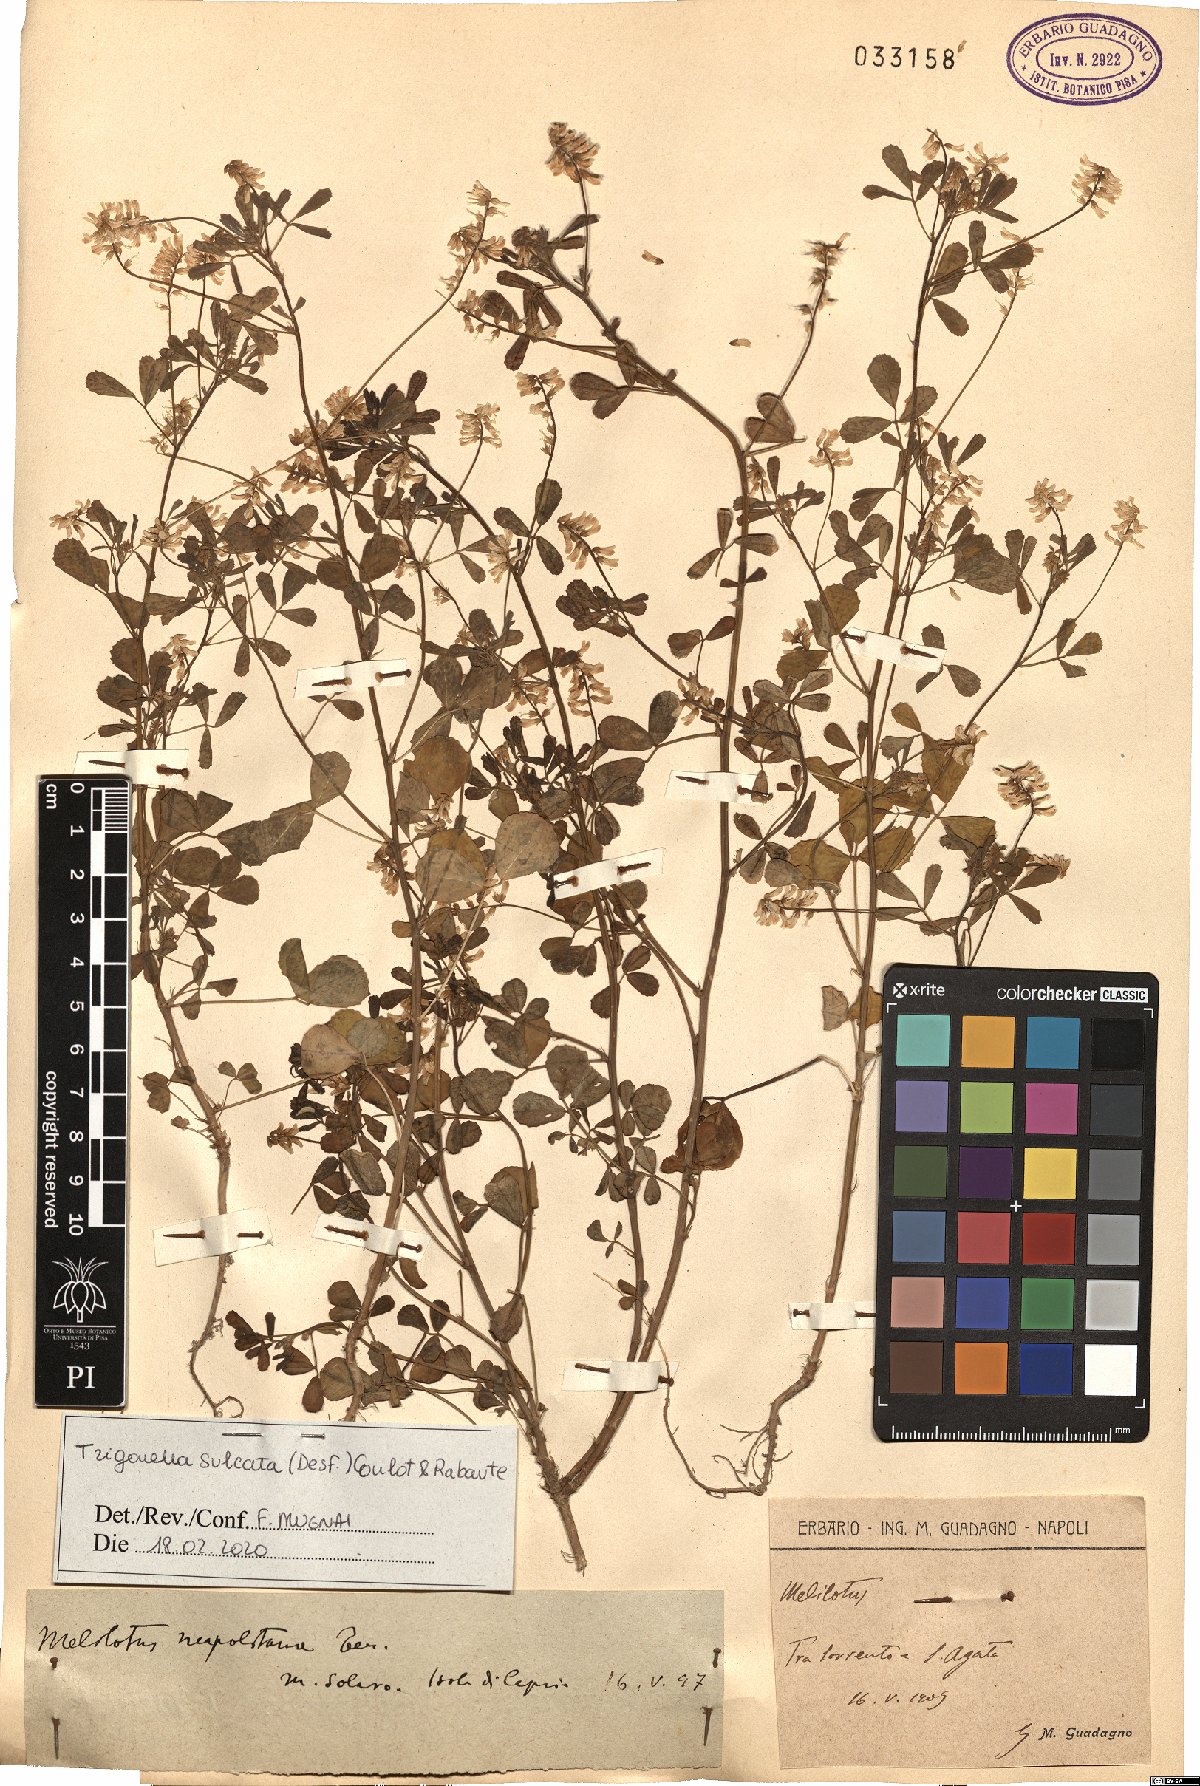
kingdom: Plantae
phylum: Tracheophyta
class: Magnoliopsida
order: Fabales
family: Fabaceae
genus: Melilotus
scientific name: Melilotus sulcatus
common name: Furrowed melilot
